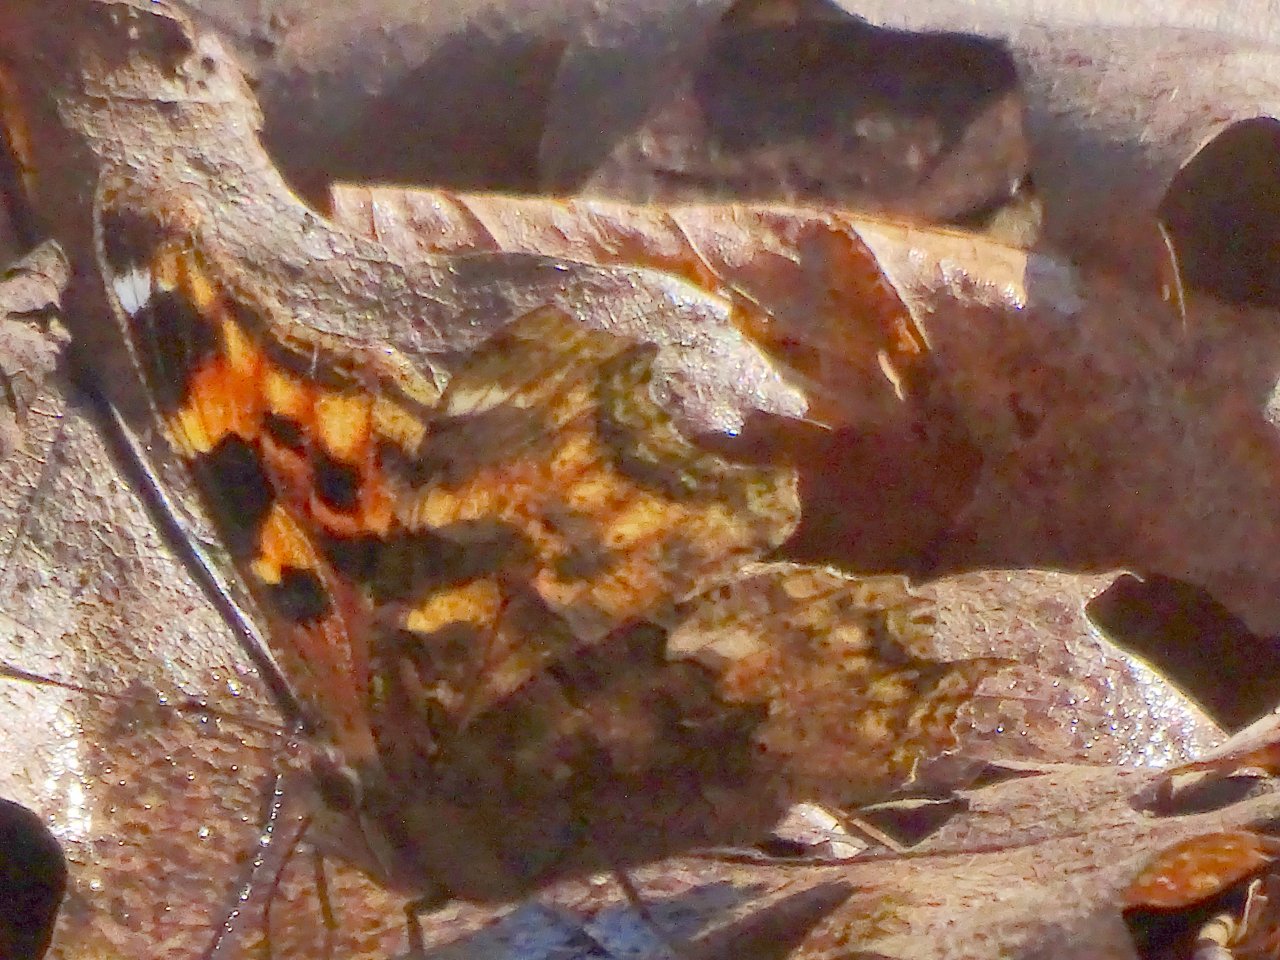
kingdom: Animalia
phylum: Arthropoda
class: Insecta
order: Lepidoptera
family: Nymphalidae
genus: Polygonia
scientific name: Polygonia vaualbum
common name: Compton Tortoiseshell
